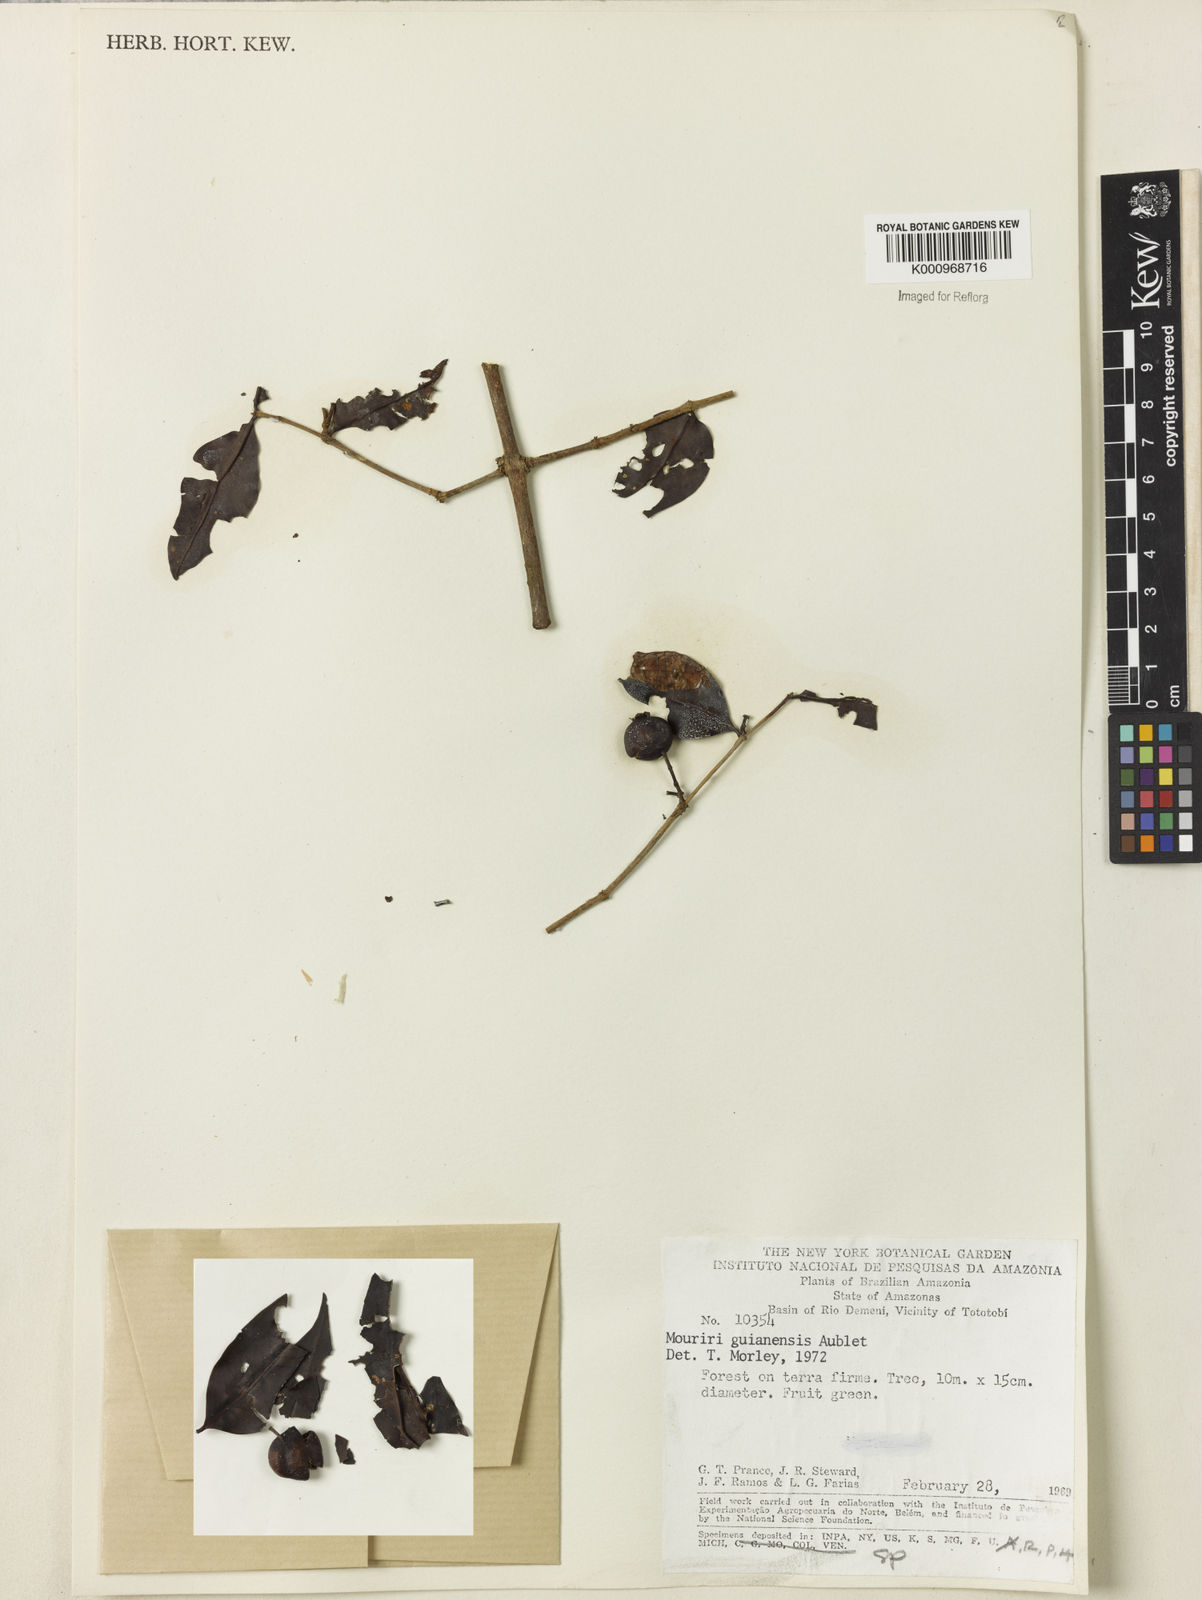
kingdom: Plantae
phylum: Tracheophyta
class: Magnoliopsida
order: Myrtales
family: Melastomataceae
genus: Mouriri
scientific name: Mouriri guianensis
